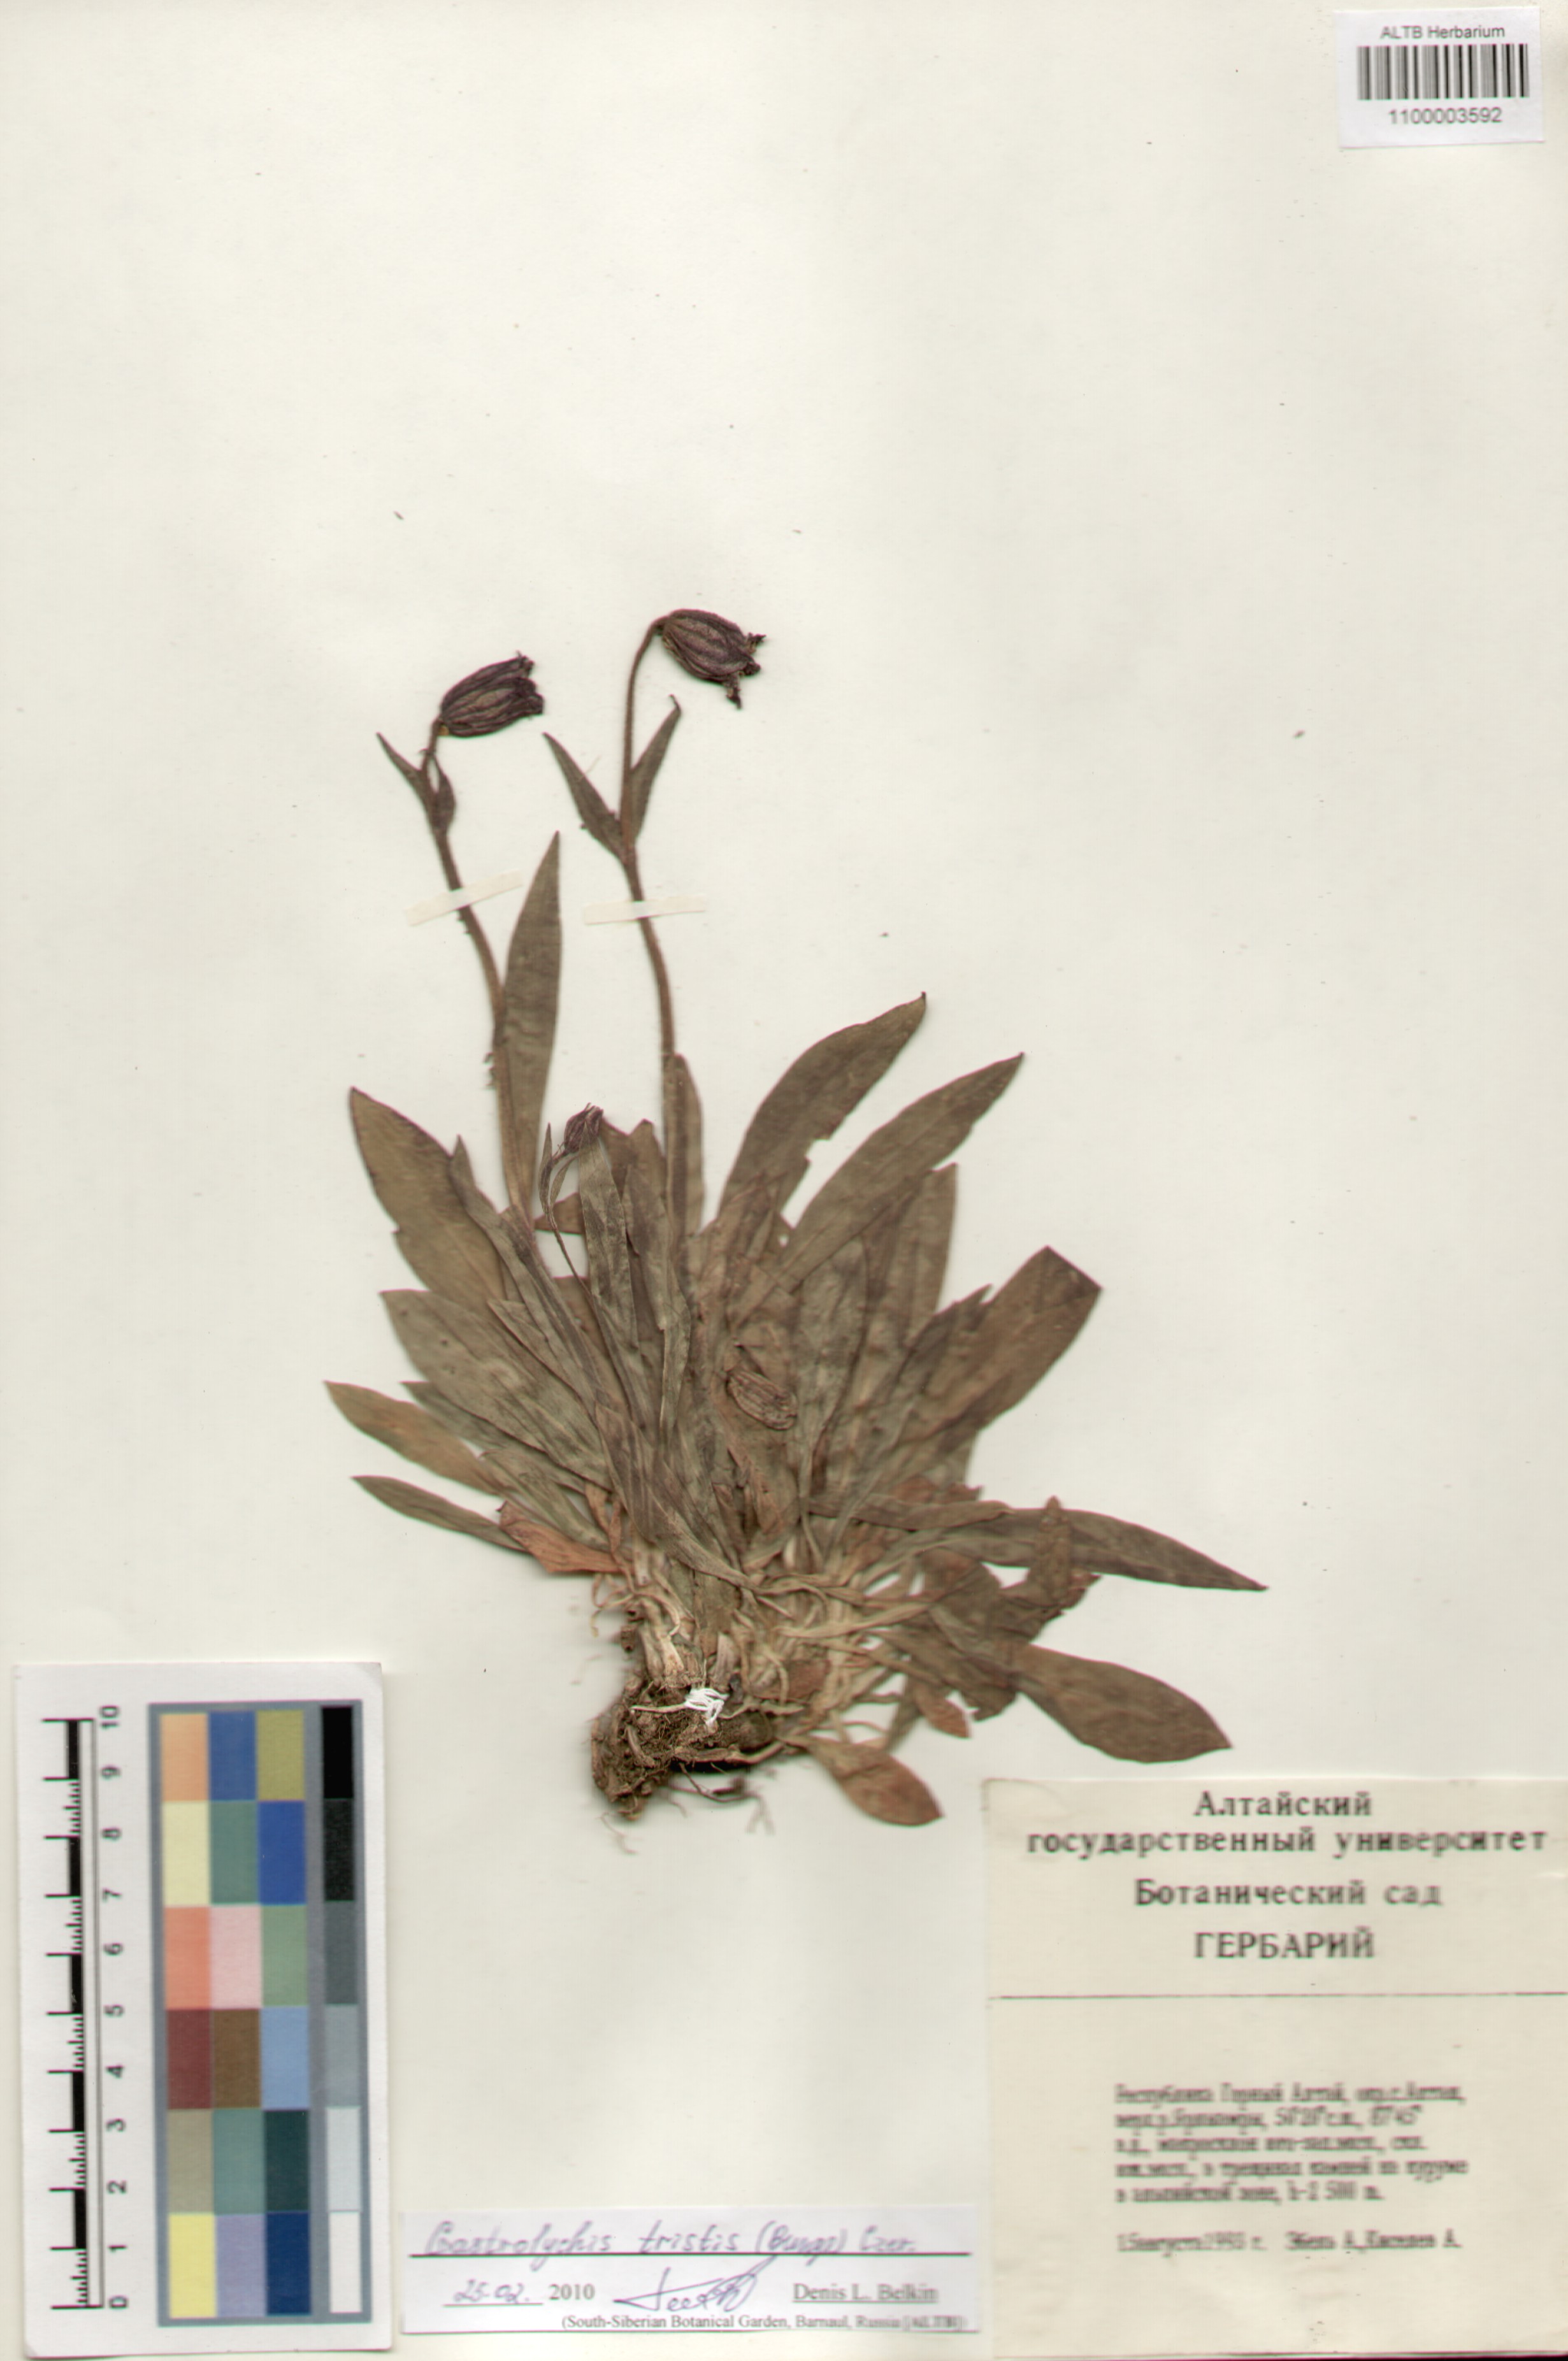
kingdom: Plantae
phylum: Tracheophyta
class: Magnoliopsida
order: Caryophyllales
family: Caryophyllaceae
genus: Silene
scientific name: Silene bungei
